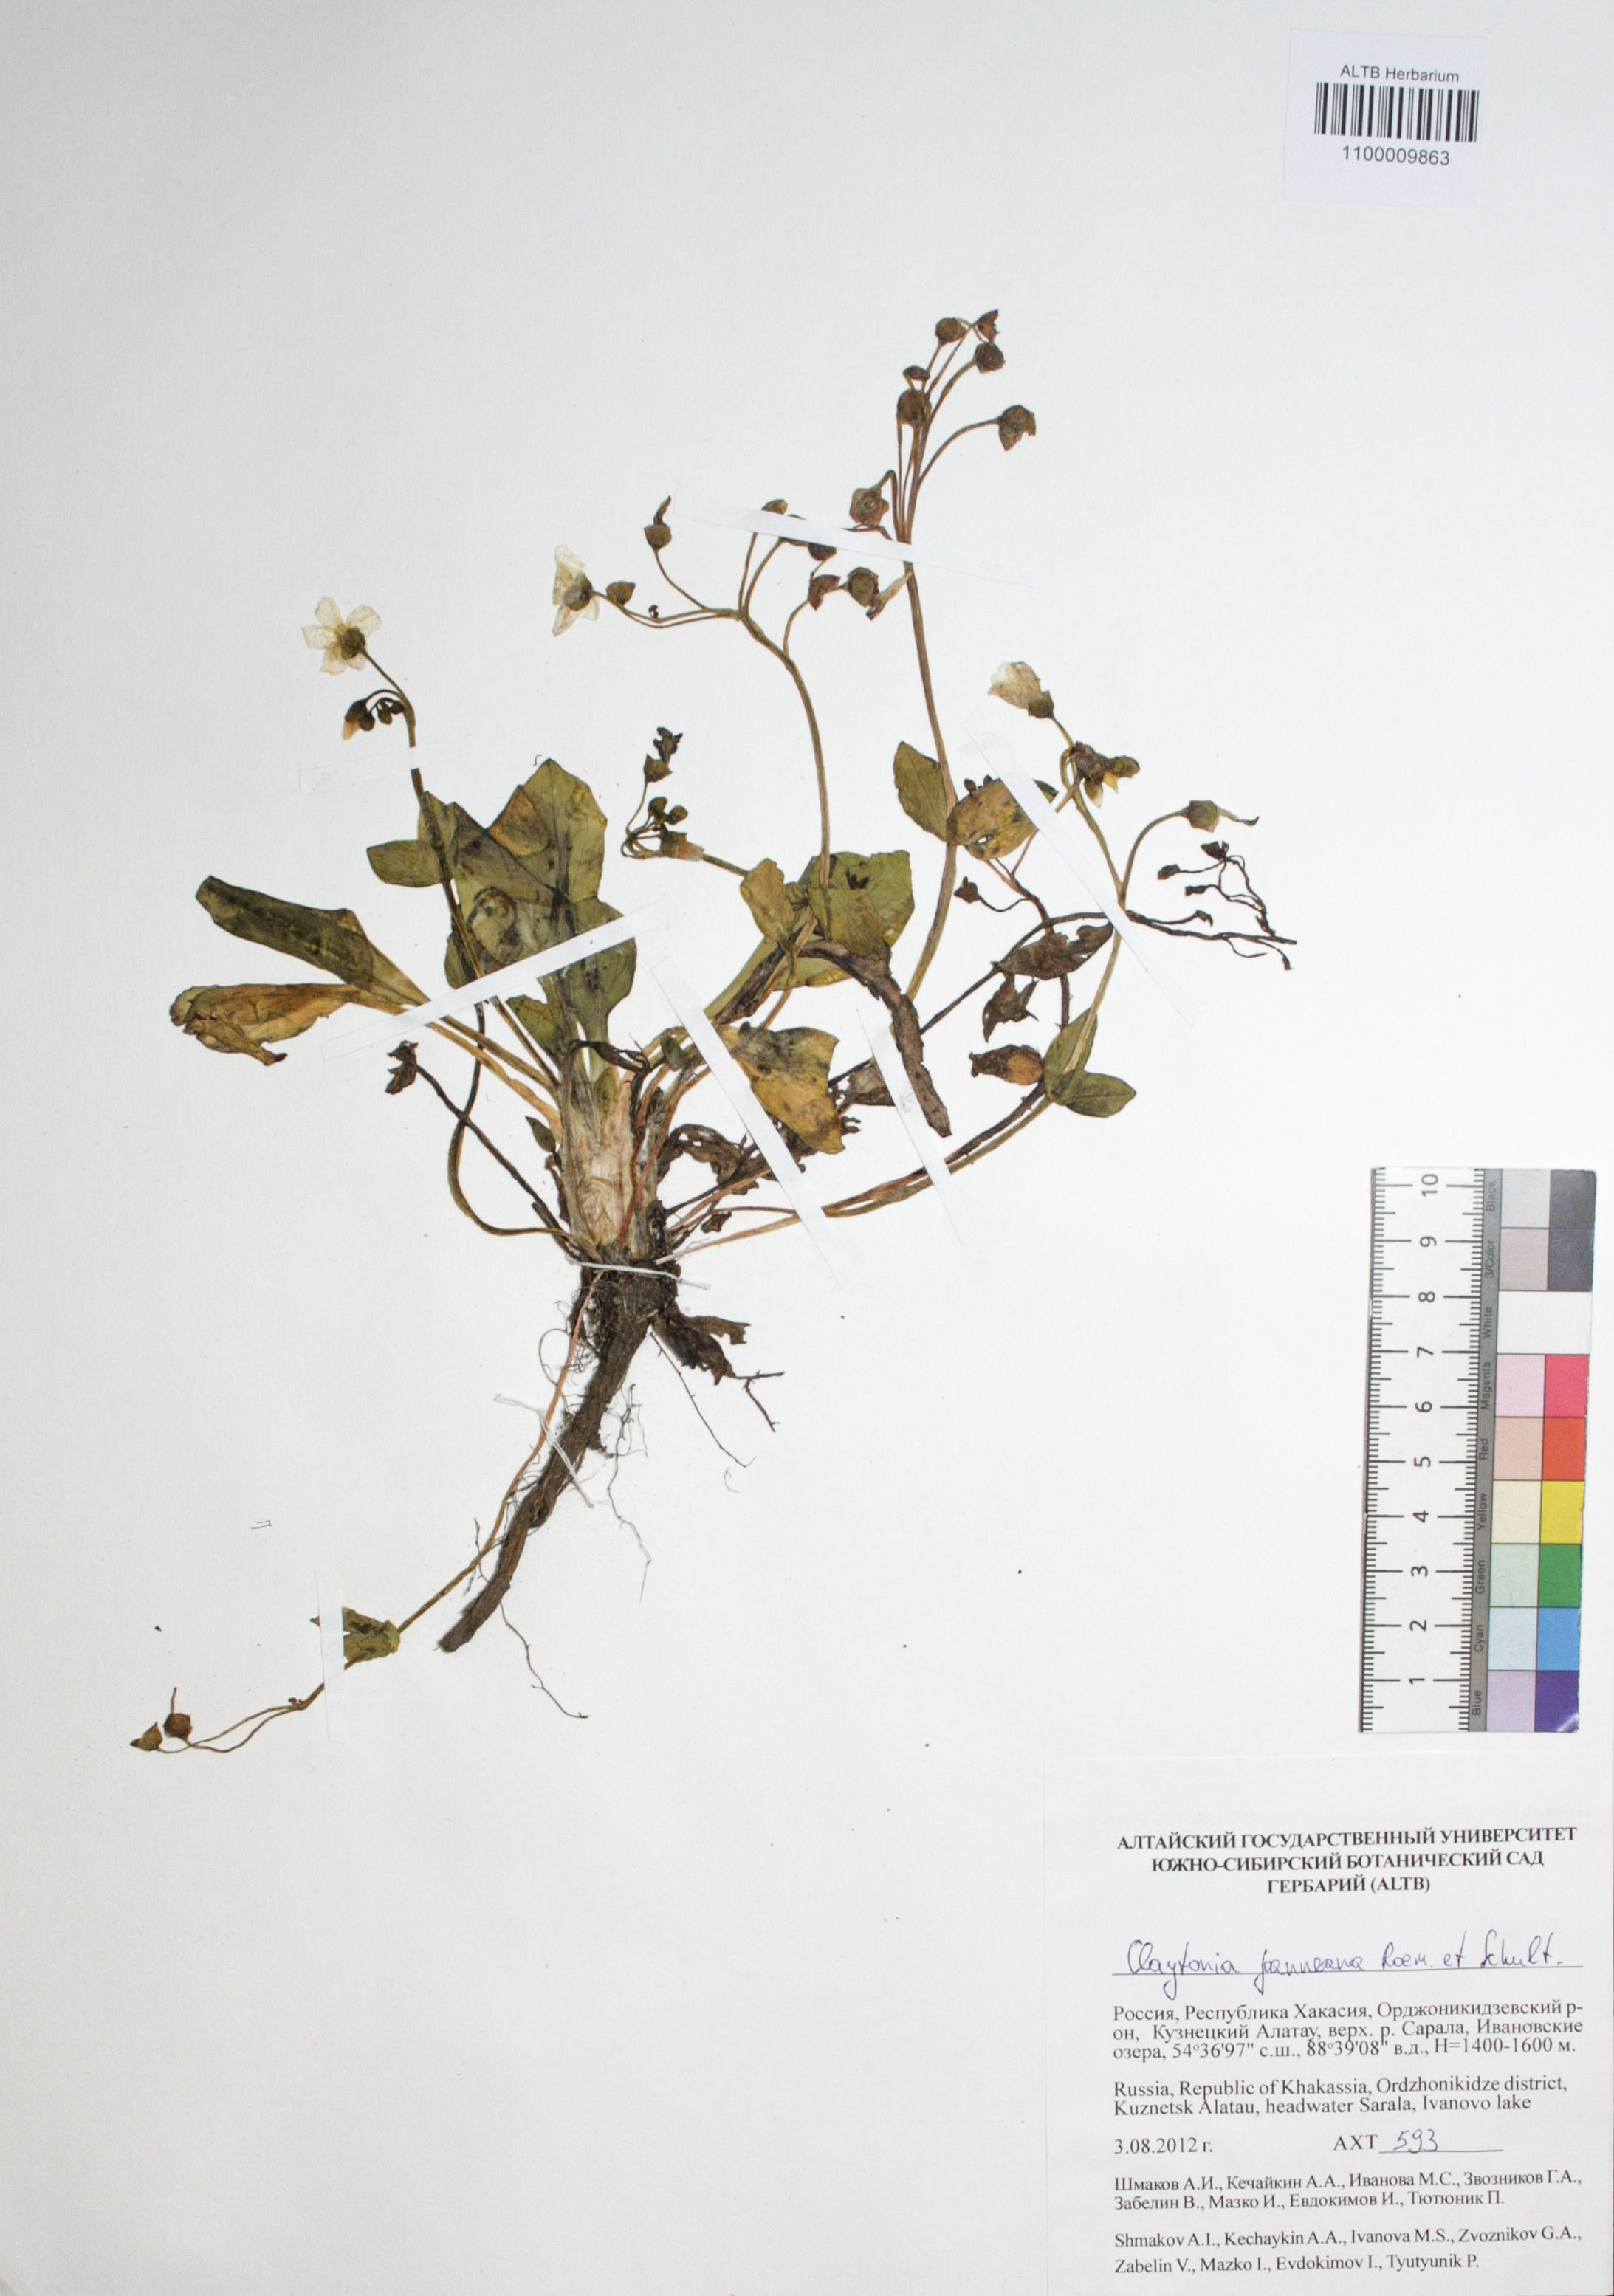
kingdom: Plantae
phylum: Tracheophyta
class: Magnoliopsida
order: Caryophyllales
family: Montiaceae
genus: Claytonia
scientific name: Claytonia joanneana
